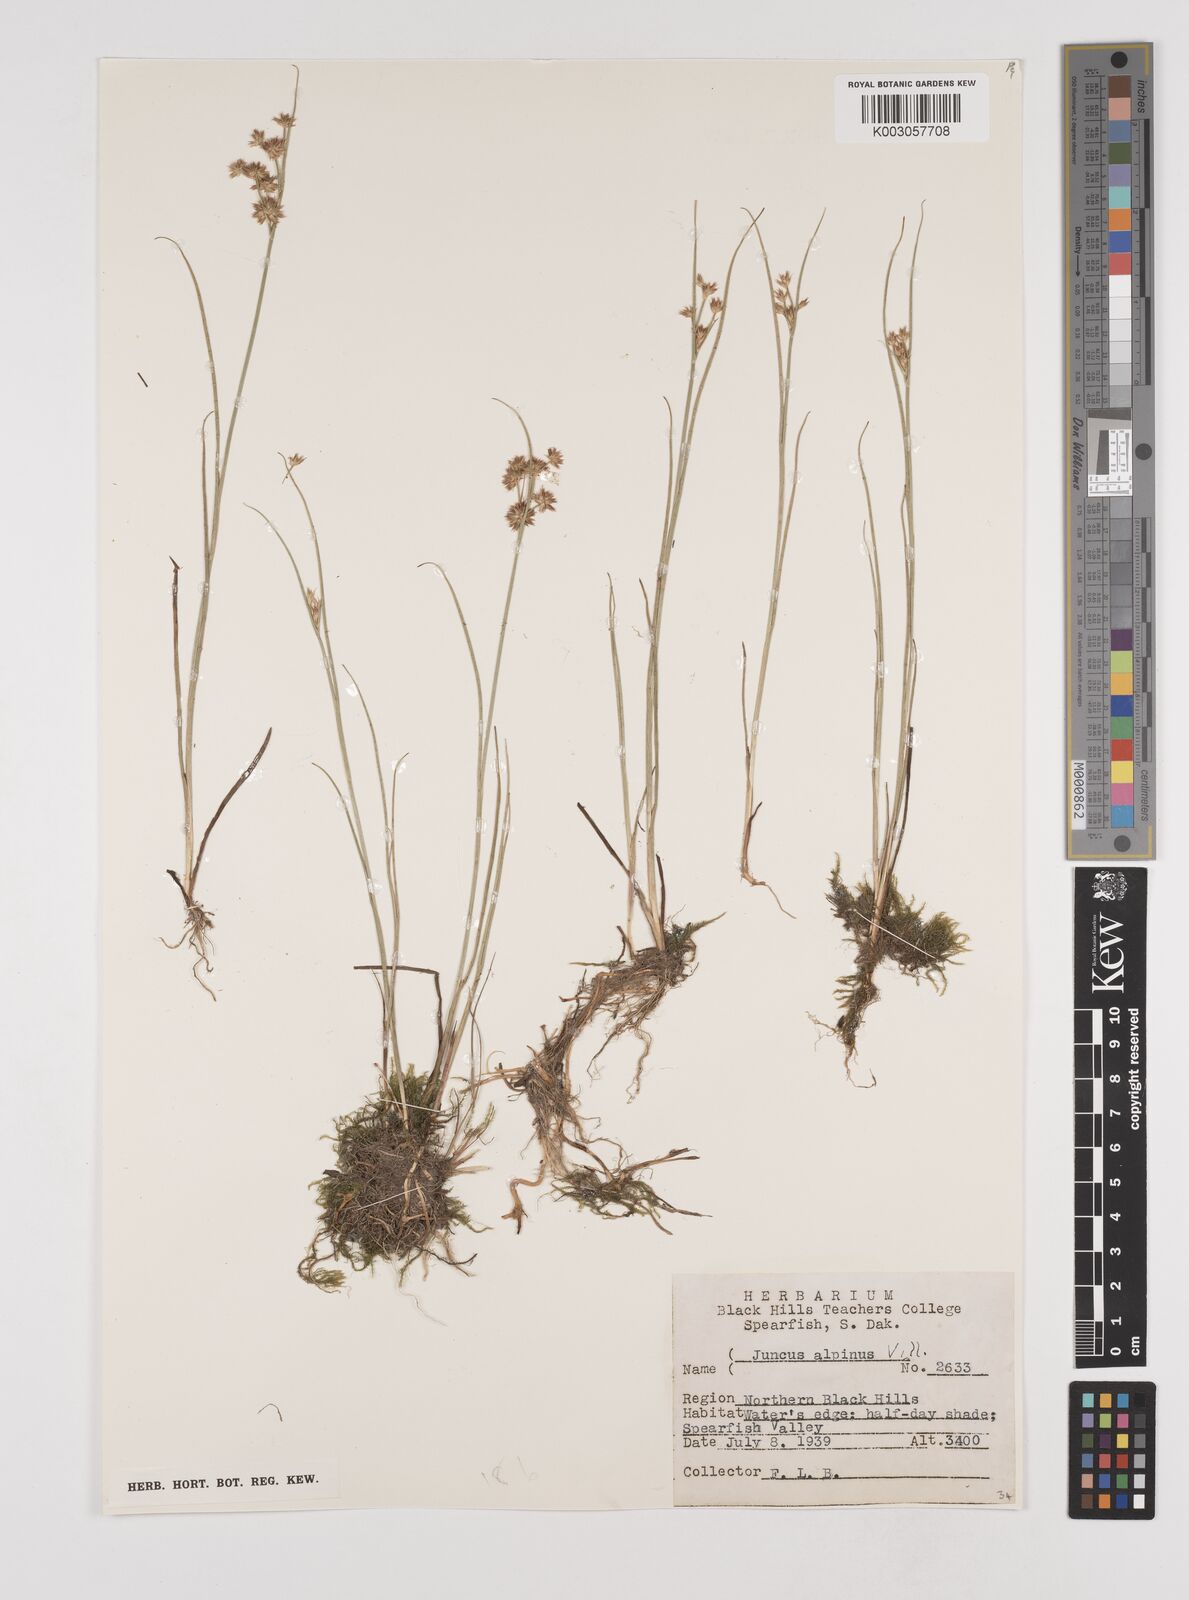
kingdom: Plantae
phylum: Tracheophyta
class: Liliopsida
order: Poales
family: Juncaceae
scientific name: Juncaceae
